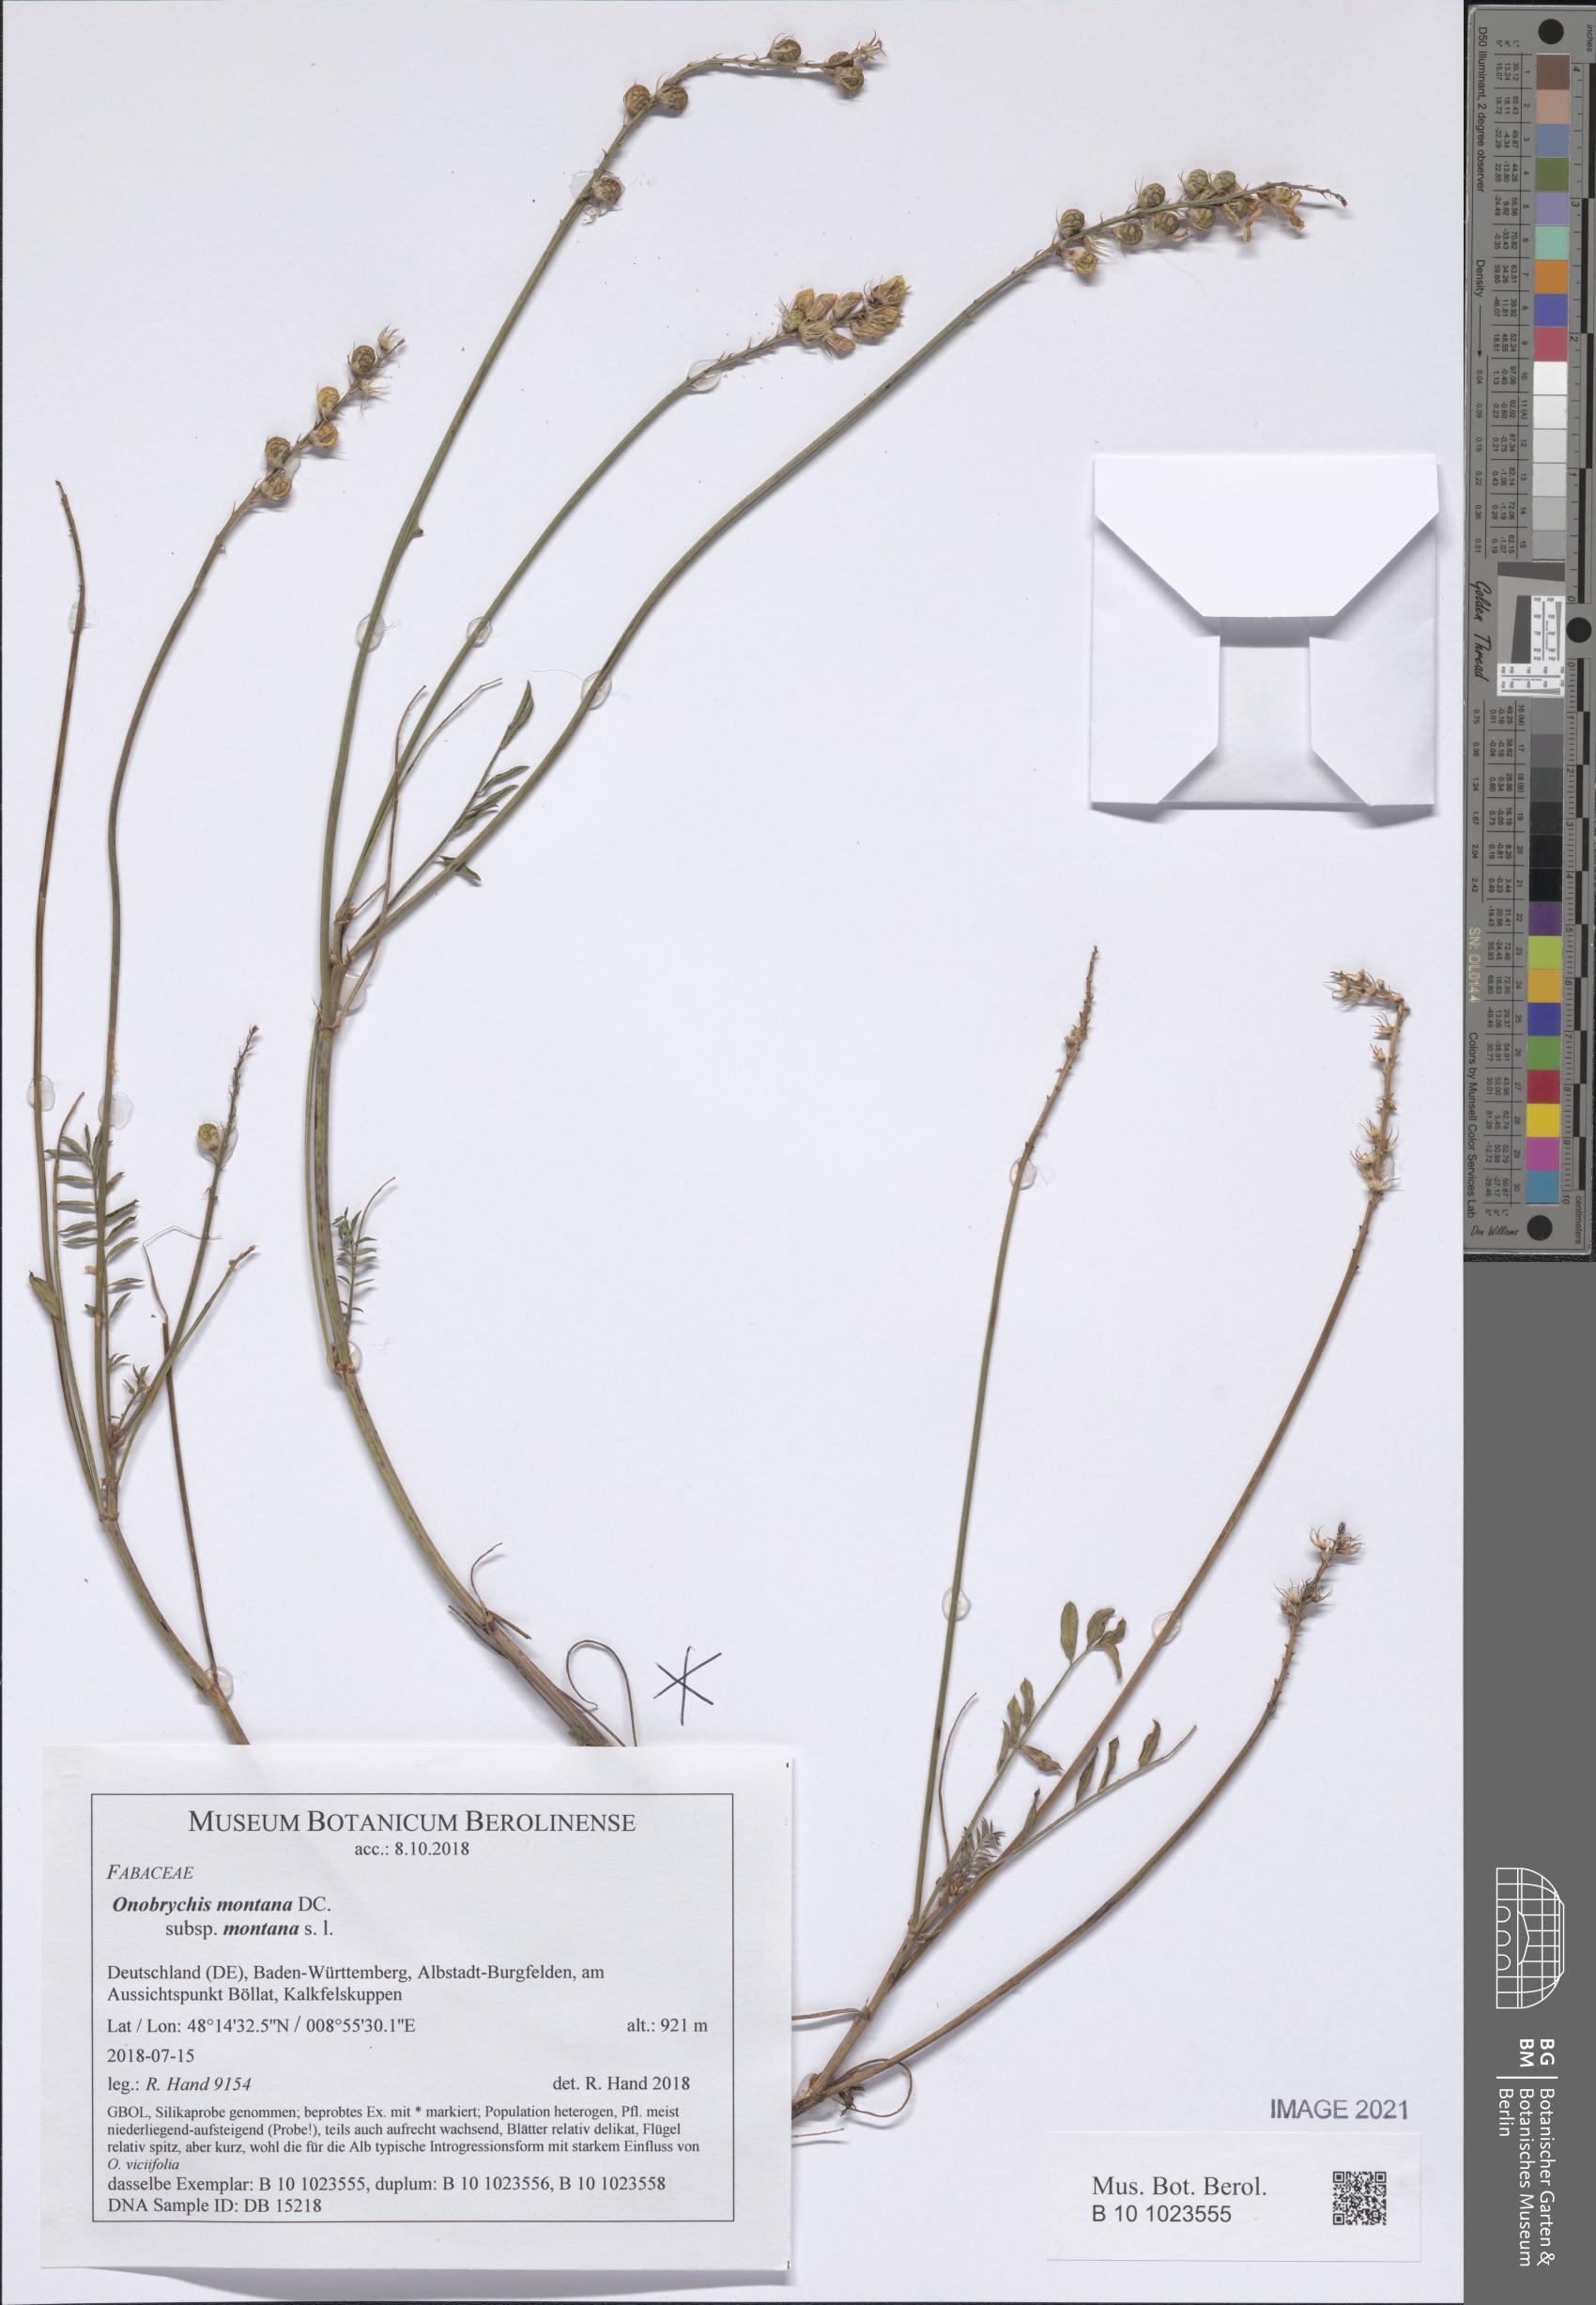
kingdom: Plantae
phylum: Tracheophyta
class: Magnoliopsida
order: Fabales
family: Fabaceae
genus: Onobrychis
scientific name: Onobrychis montana
